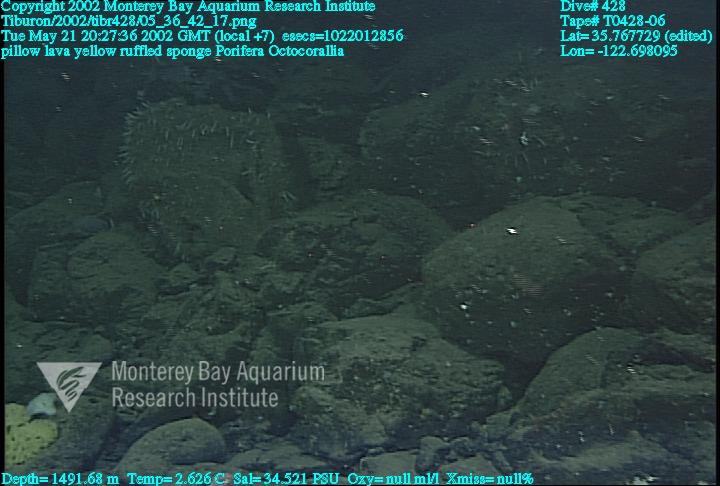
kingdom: Animalia
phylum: Porifera
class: Hexactinellida
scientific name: Hexactinellida
